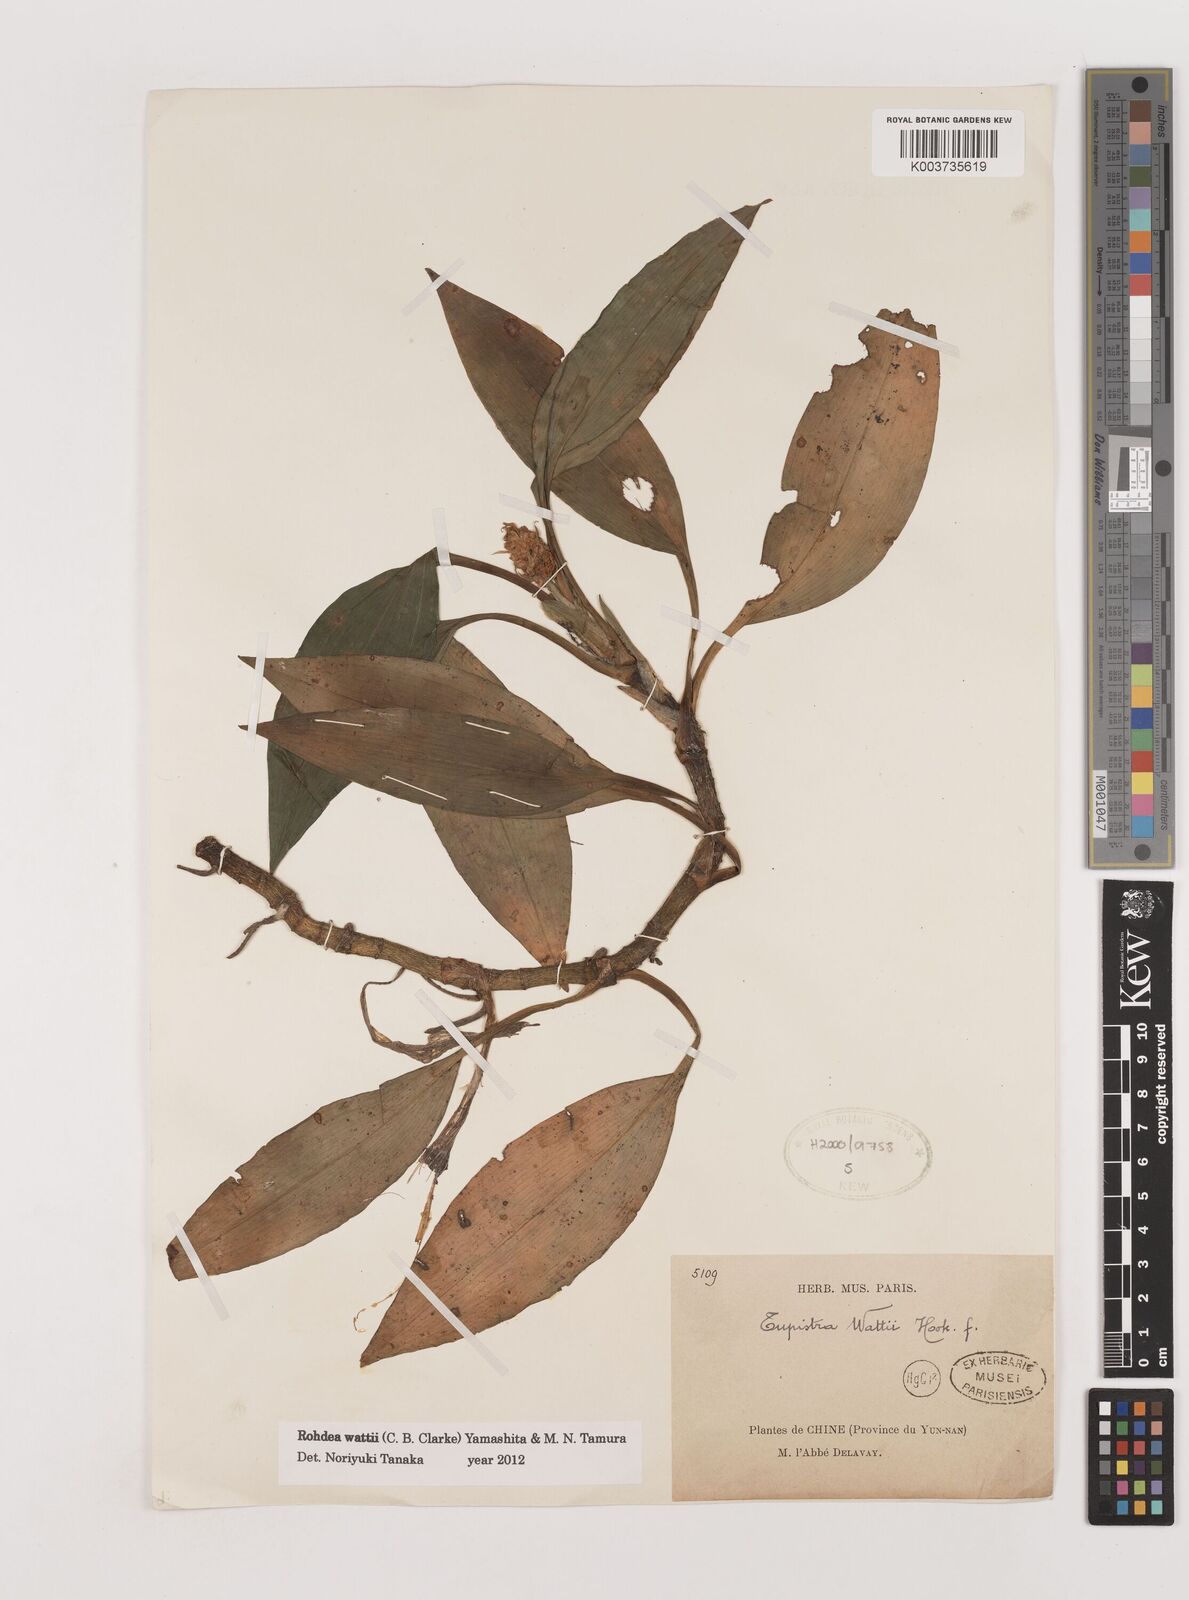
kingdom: Plantae
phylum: Tracheophyta
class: Liliopsida
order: Asparagales
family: Asparagaceae
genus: Rohdea
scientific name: Rohdea wattii
